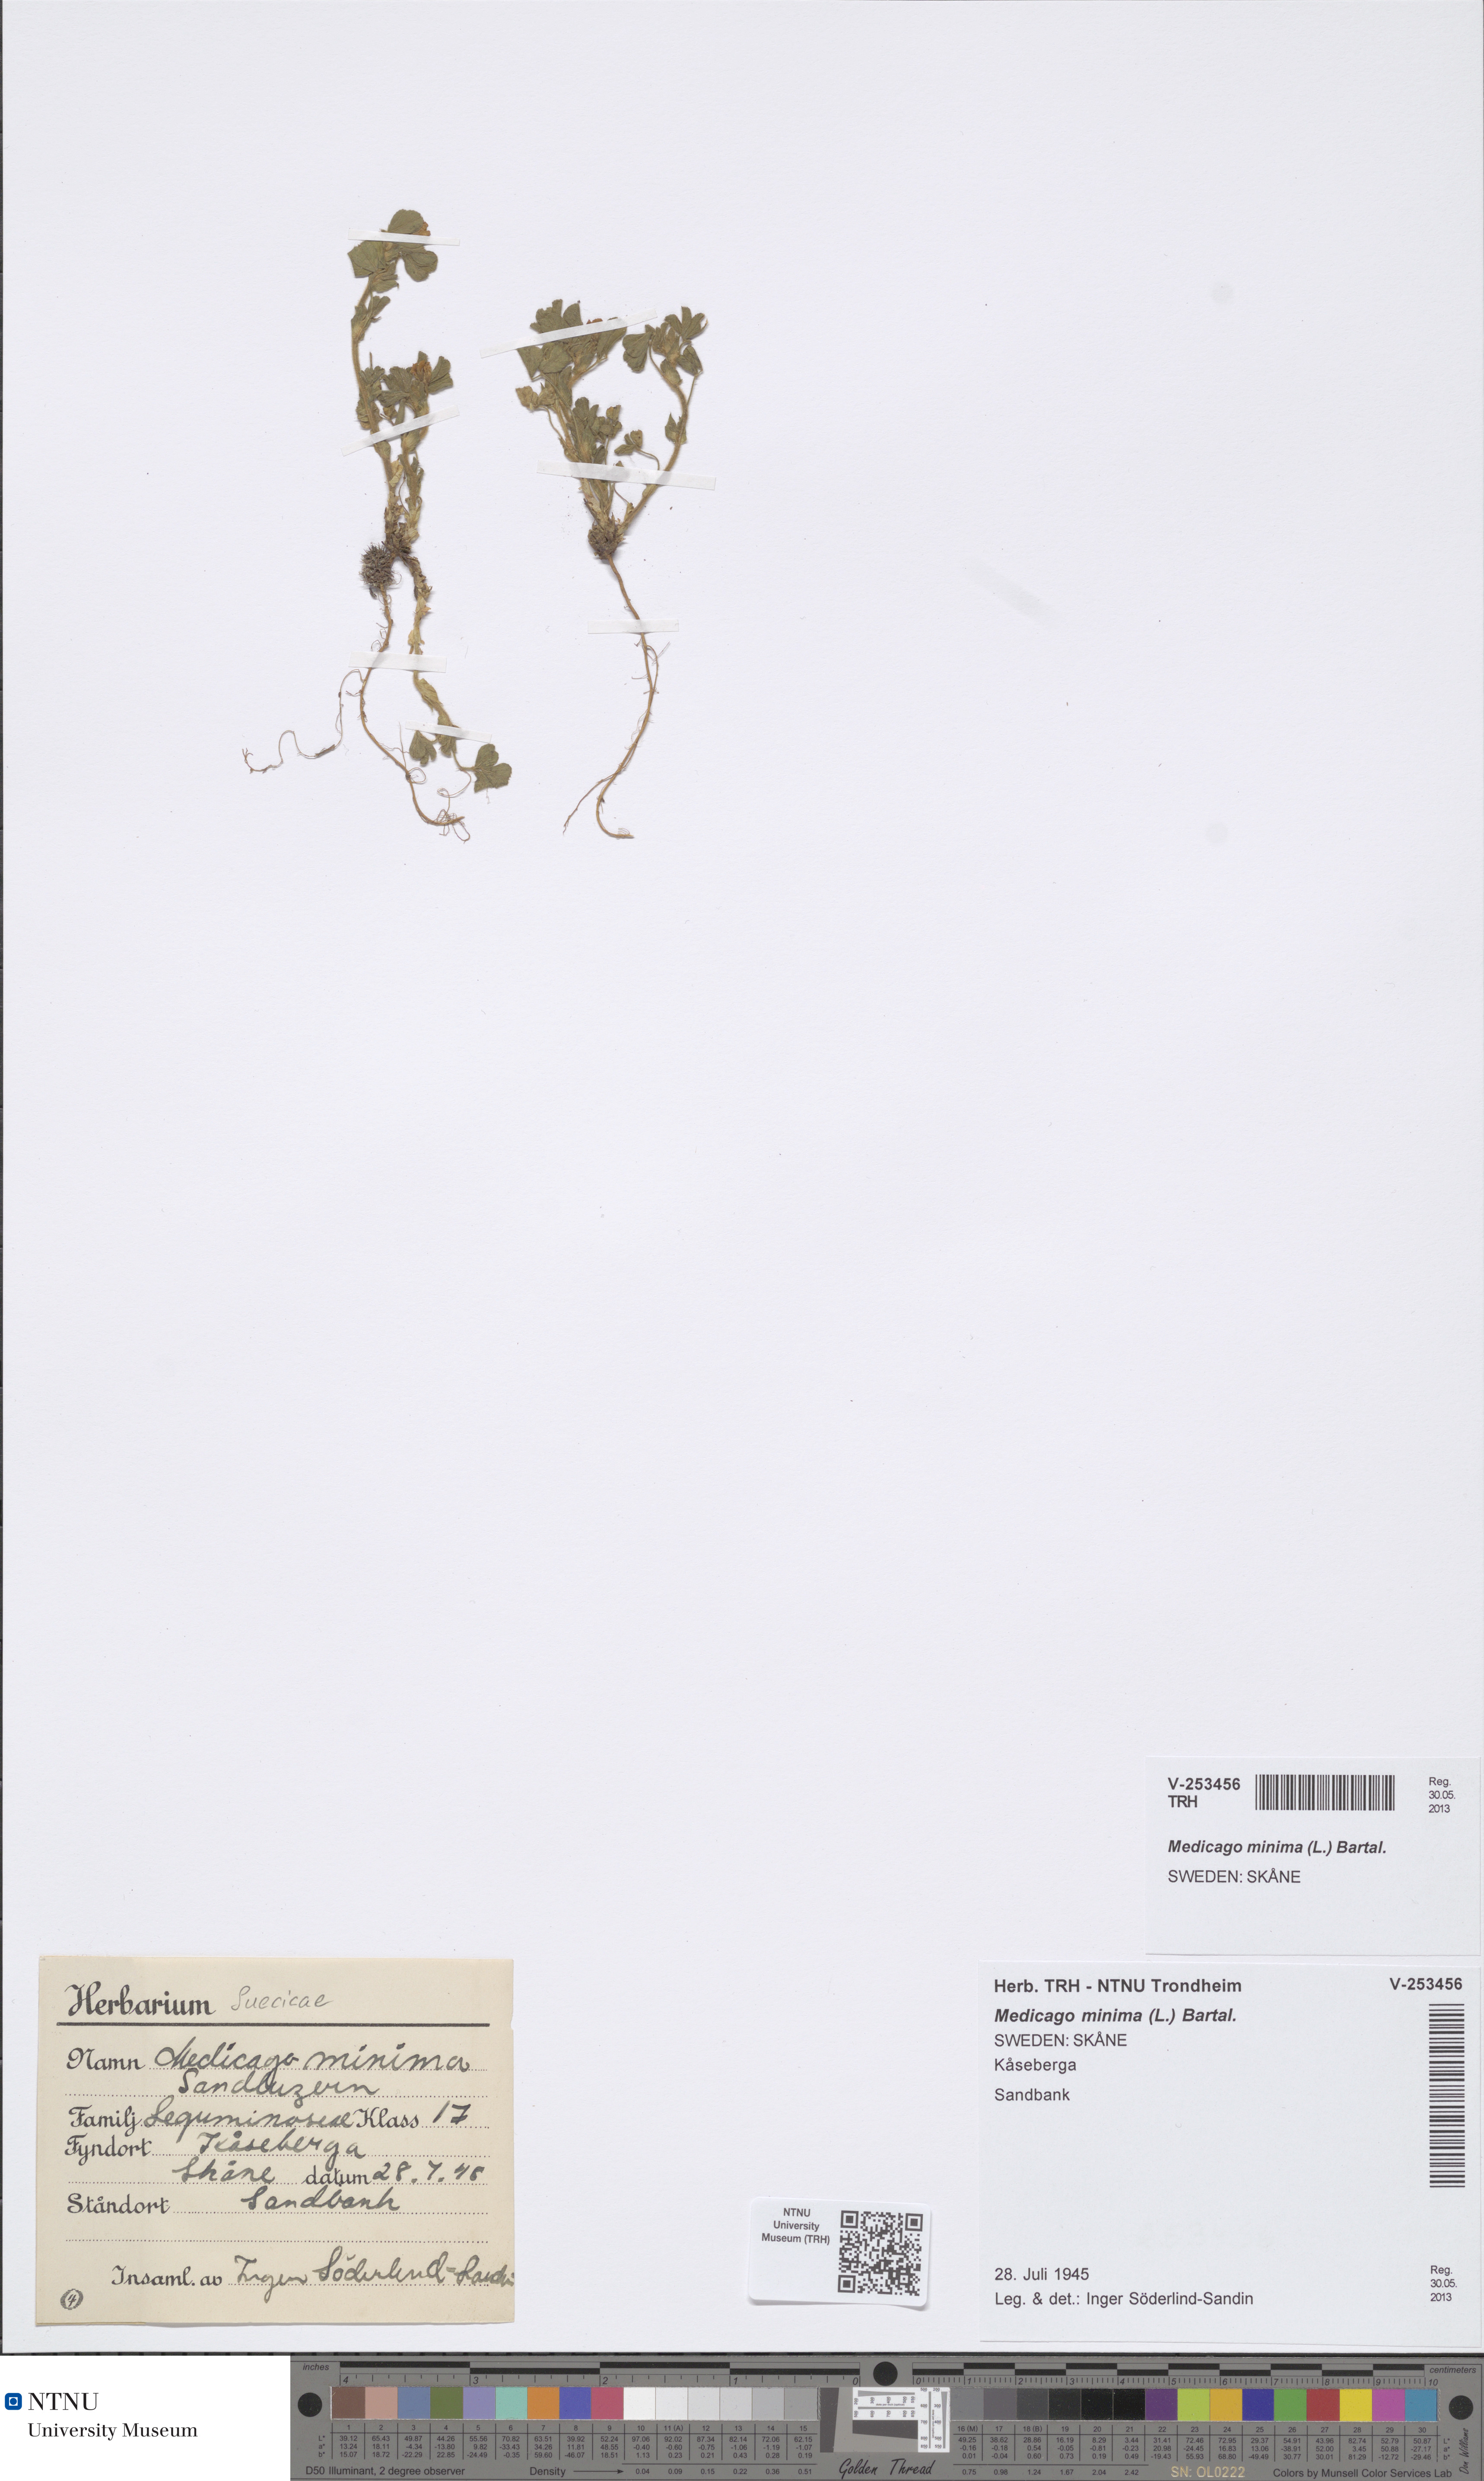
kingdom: Plantae
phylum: Tracheophyta
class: Magnoliopsida
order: Fabales
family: Fabaceae
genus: Medicago
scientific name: Medicago minima
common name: Little bur-clover
